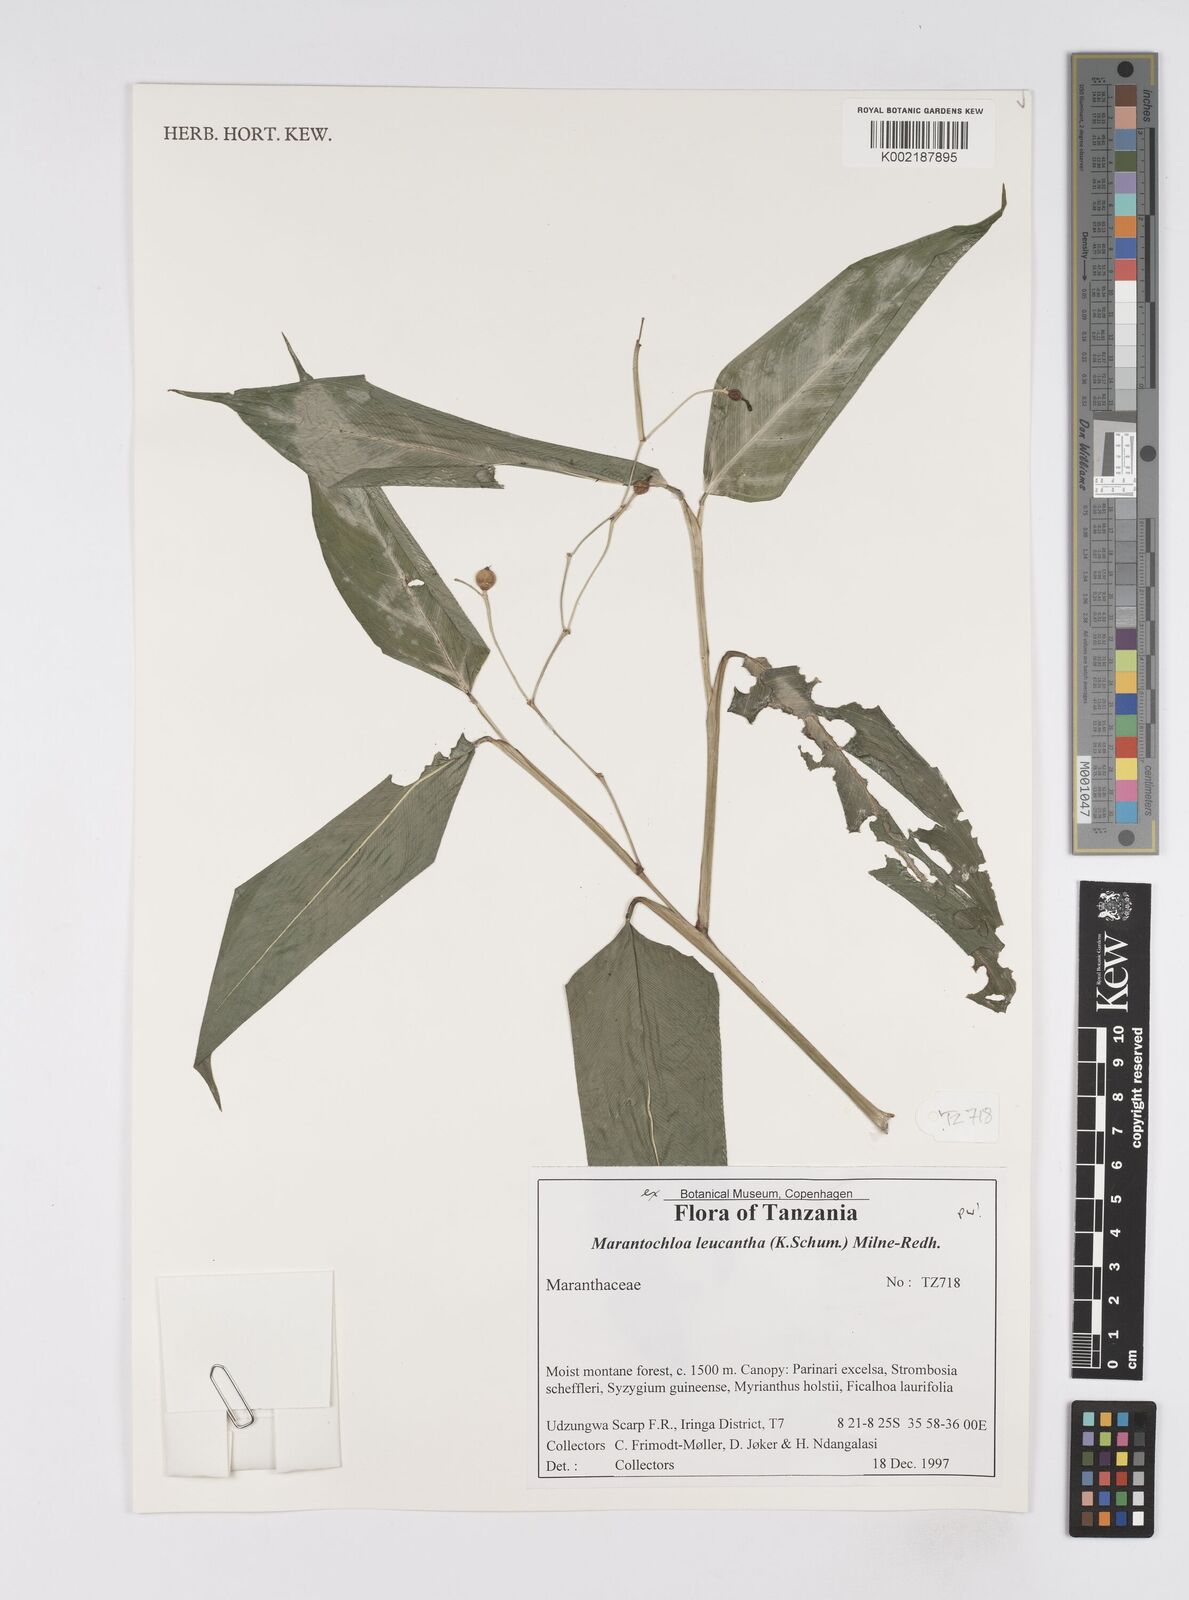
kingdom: Plantae
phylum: Tracheophyta
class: Liliopsida
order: Zingiberales
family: Marantaceae
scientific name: Marantaceae
